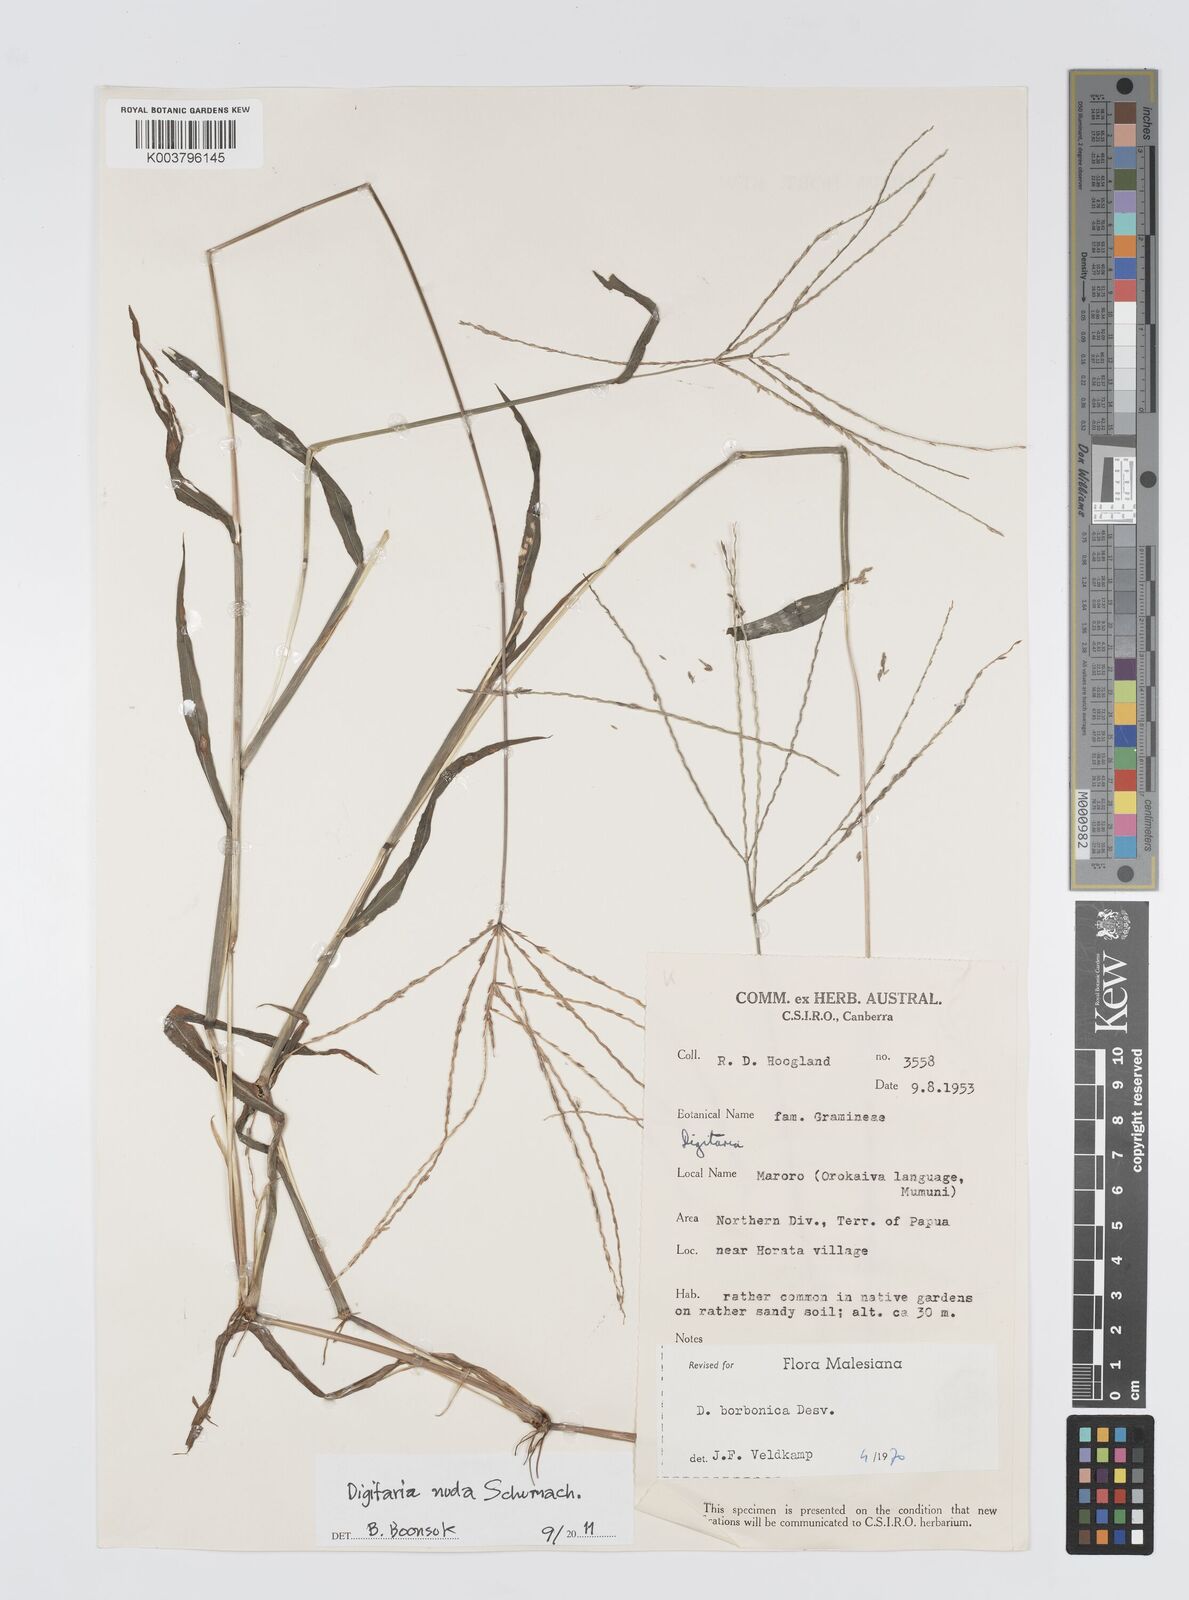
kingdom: Plantae
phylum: Tracheophyta
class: Liliopsida
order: Poales
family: Poaceae
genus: Digitaria
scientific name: Digitaria nuda
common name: Naked crabgrass
